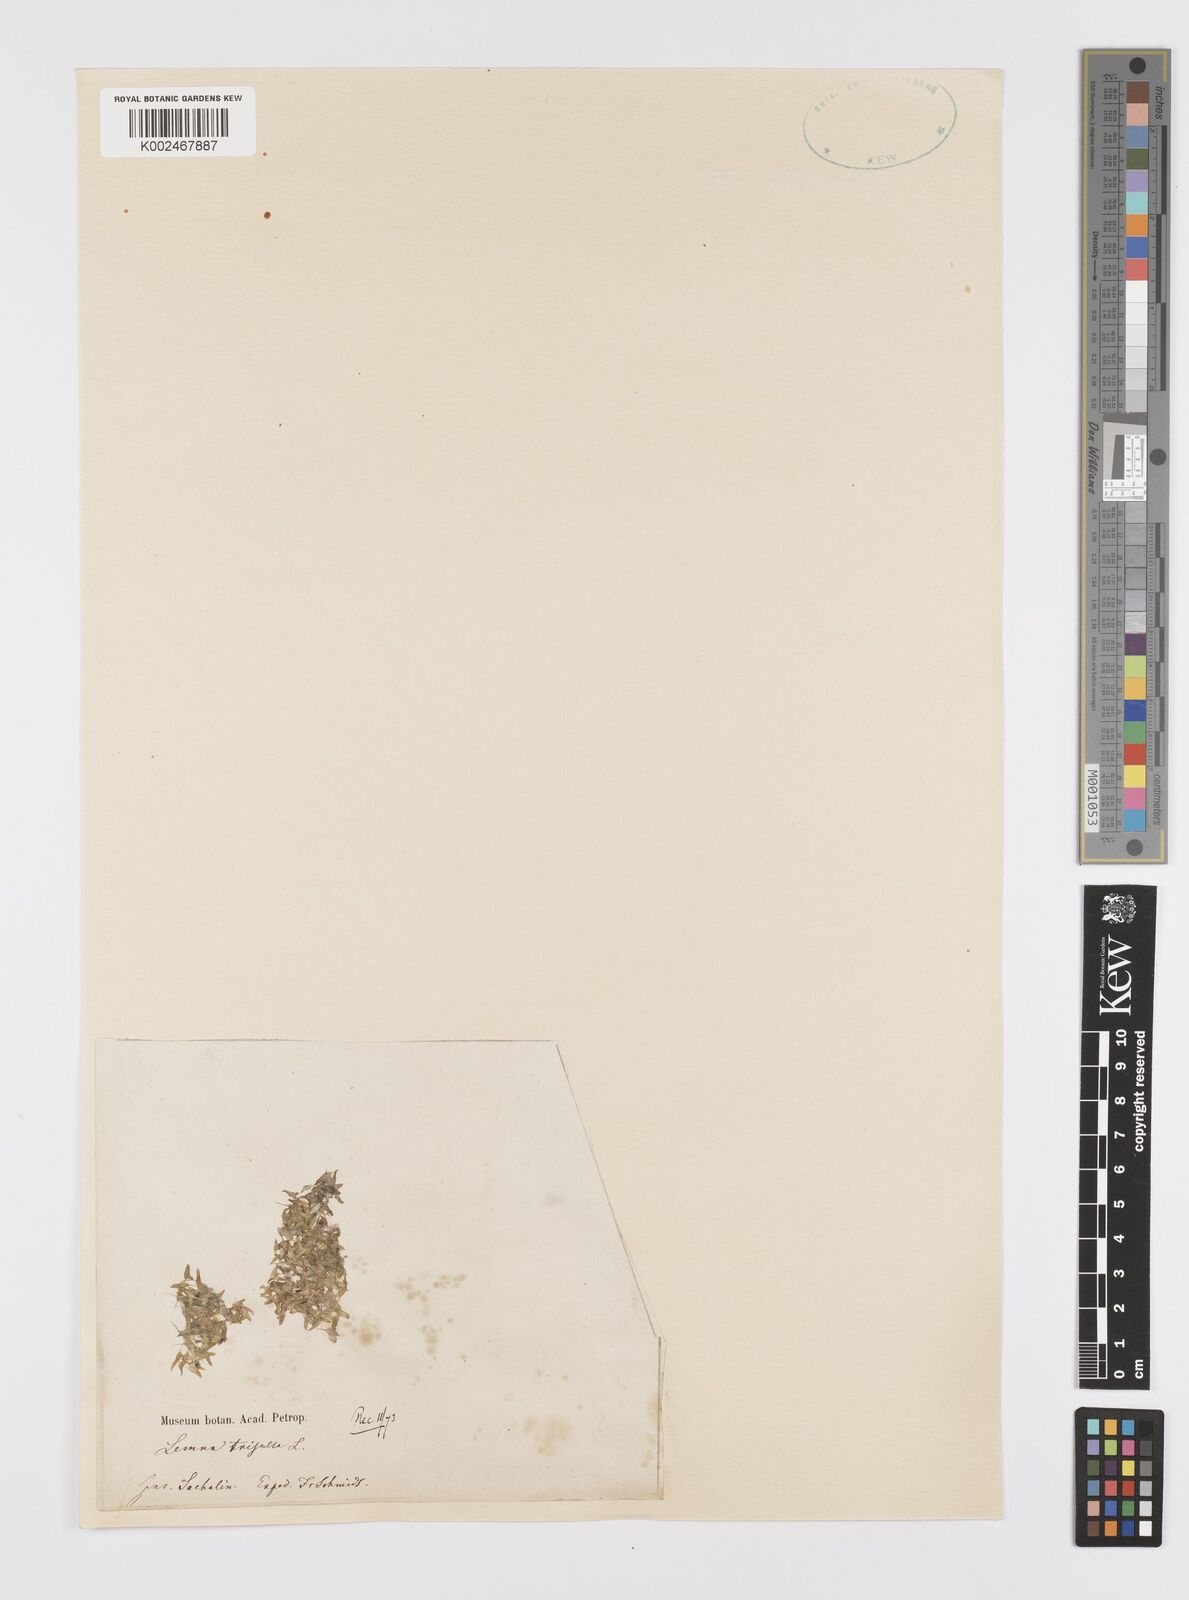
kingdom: Plantae
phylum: Tracheophyta
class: Liliopsida
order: Alismatales
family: Araceae
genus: Lemna
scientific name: Lemna trisulca
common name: Ivy-leaved duckweed
